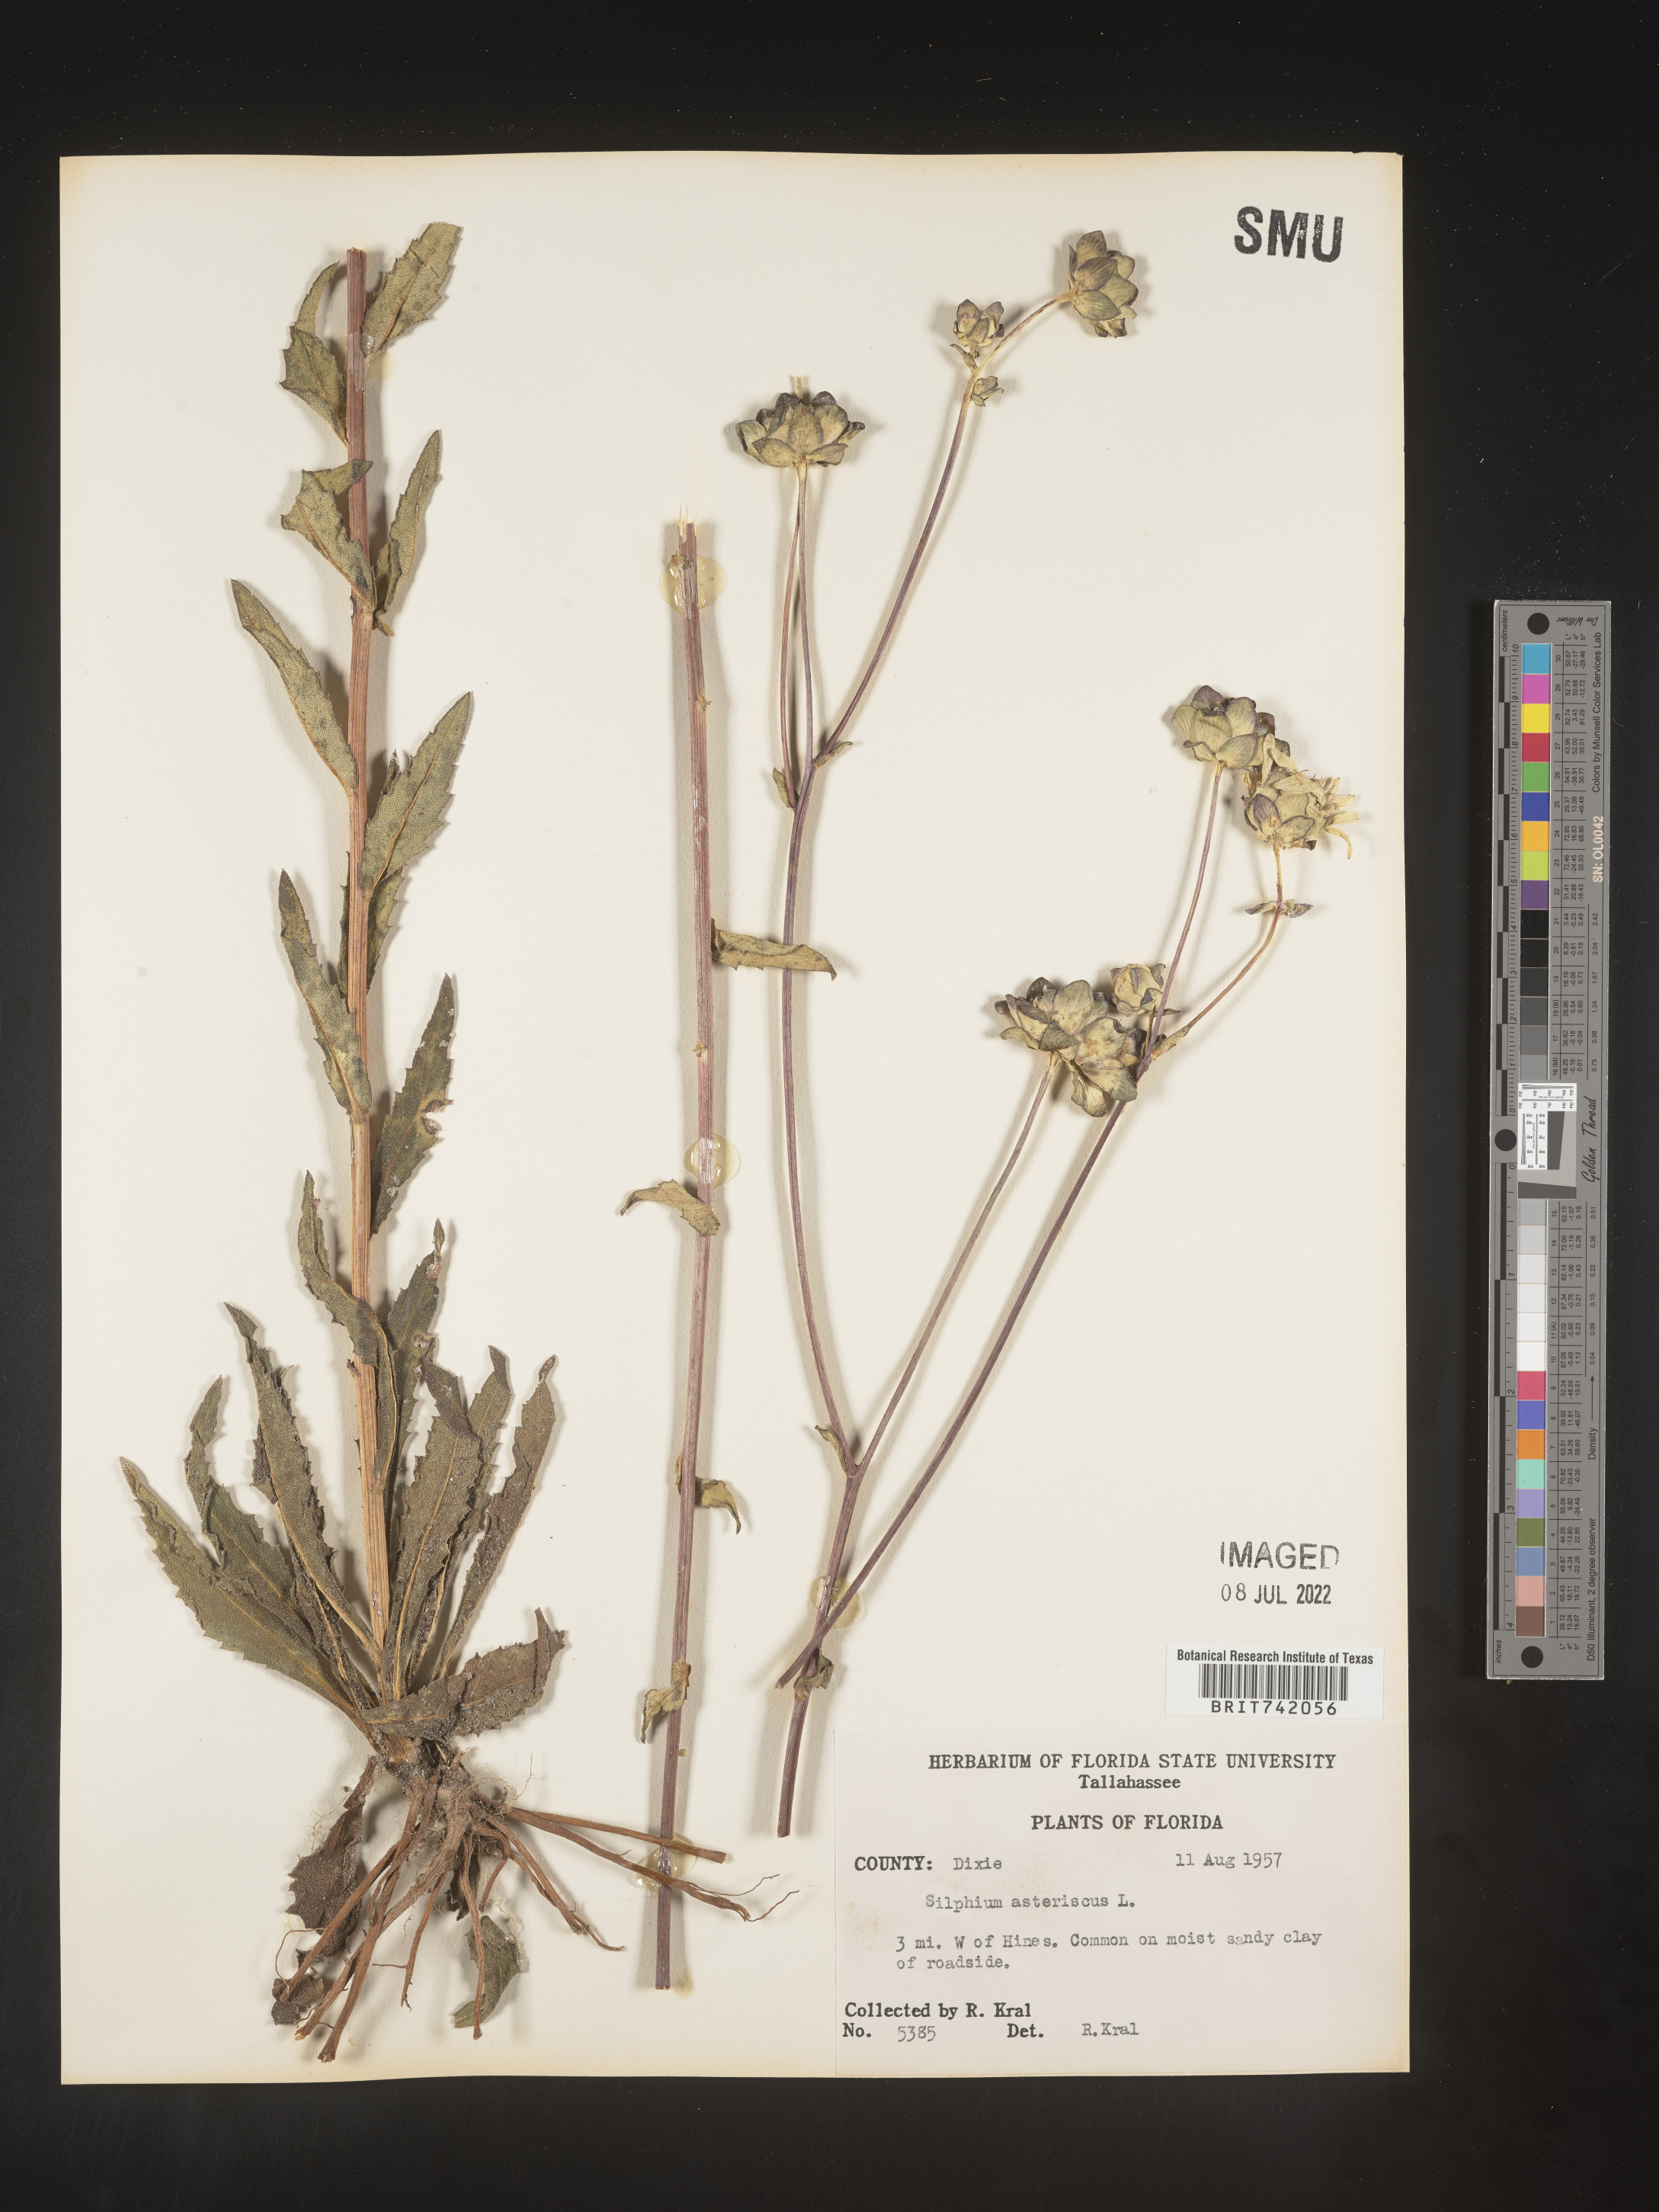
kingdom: Plantae
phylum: Tracheophyta
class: Magnoliopsida
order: Asterales
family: Asteraceae
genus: Silphium
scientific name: Silphium asteriscus
